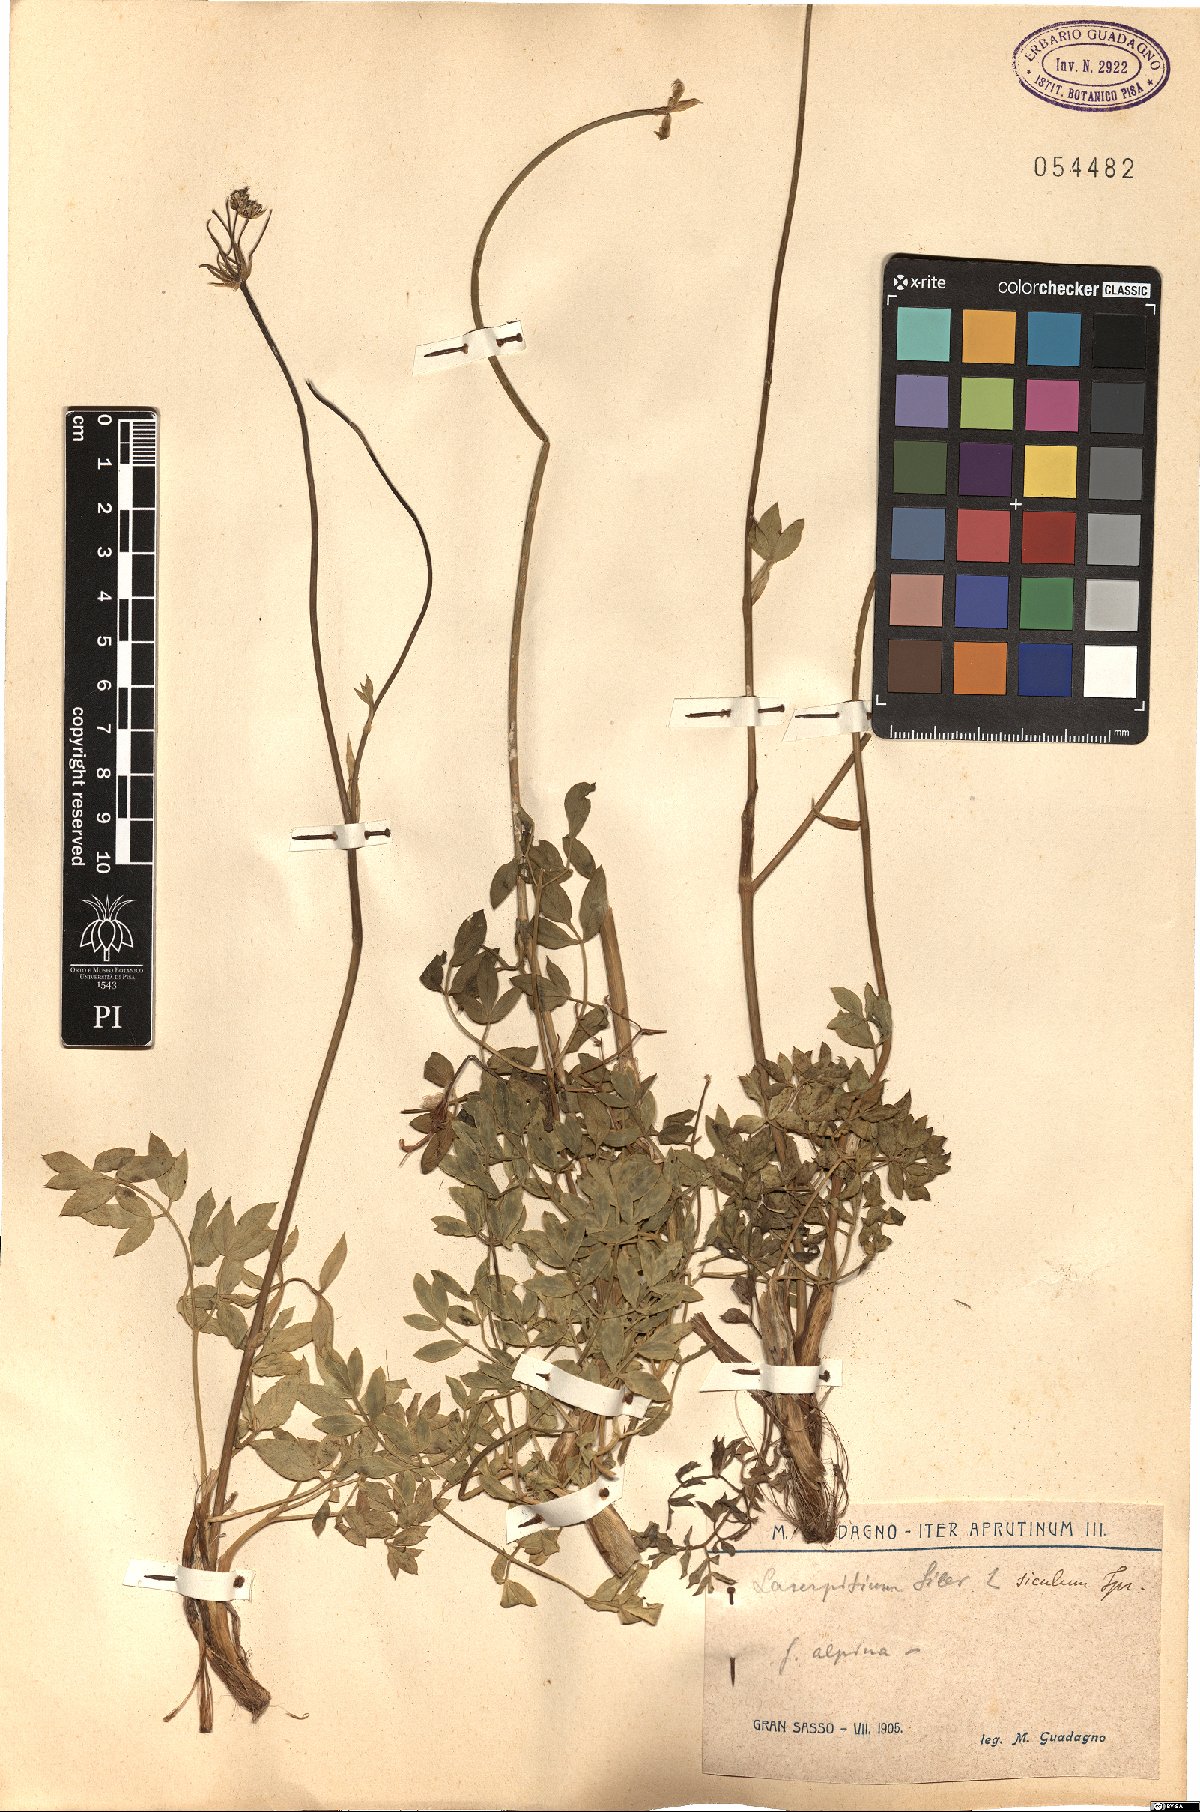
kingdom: Plantae
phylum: Tracheophyta
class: Magnoliopsida
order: Apiales
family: Apiaceae
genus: Siler
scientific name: Siler montanum
